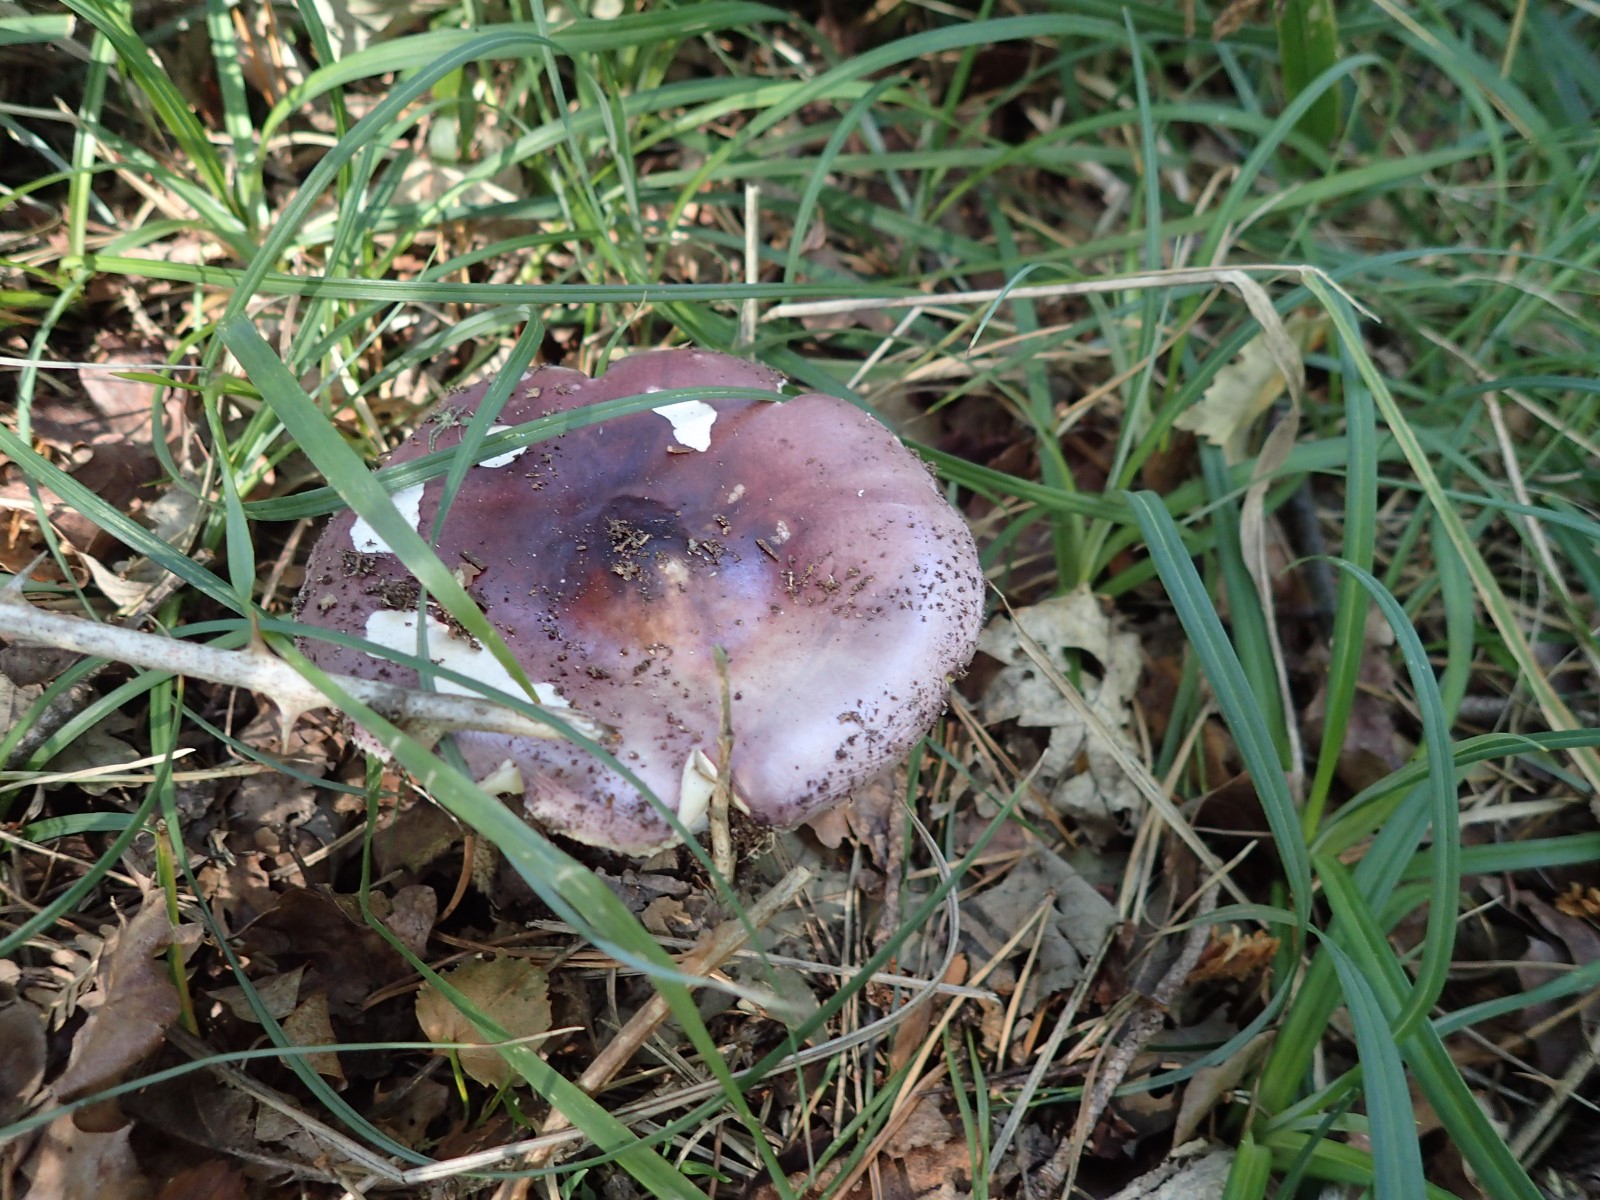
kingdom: Fungi
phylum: Basidiomycota
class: Agaricomycetes
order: Russulales
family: Russulaceae
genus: Russula
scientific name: Russula caerulea
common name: puklet skørhat
